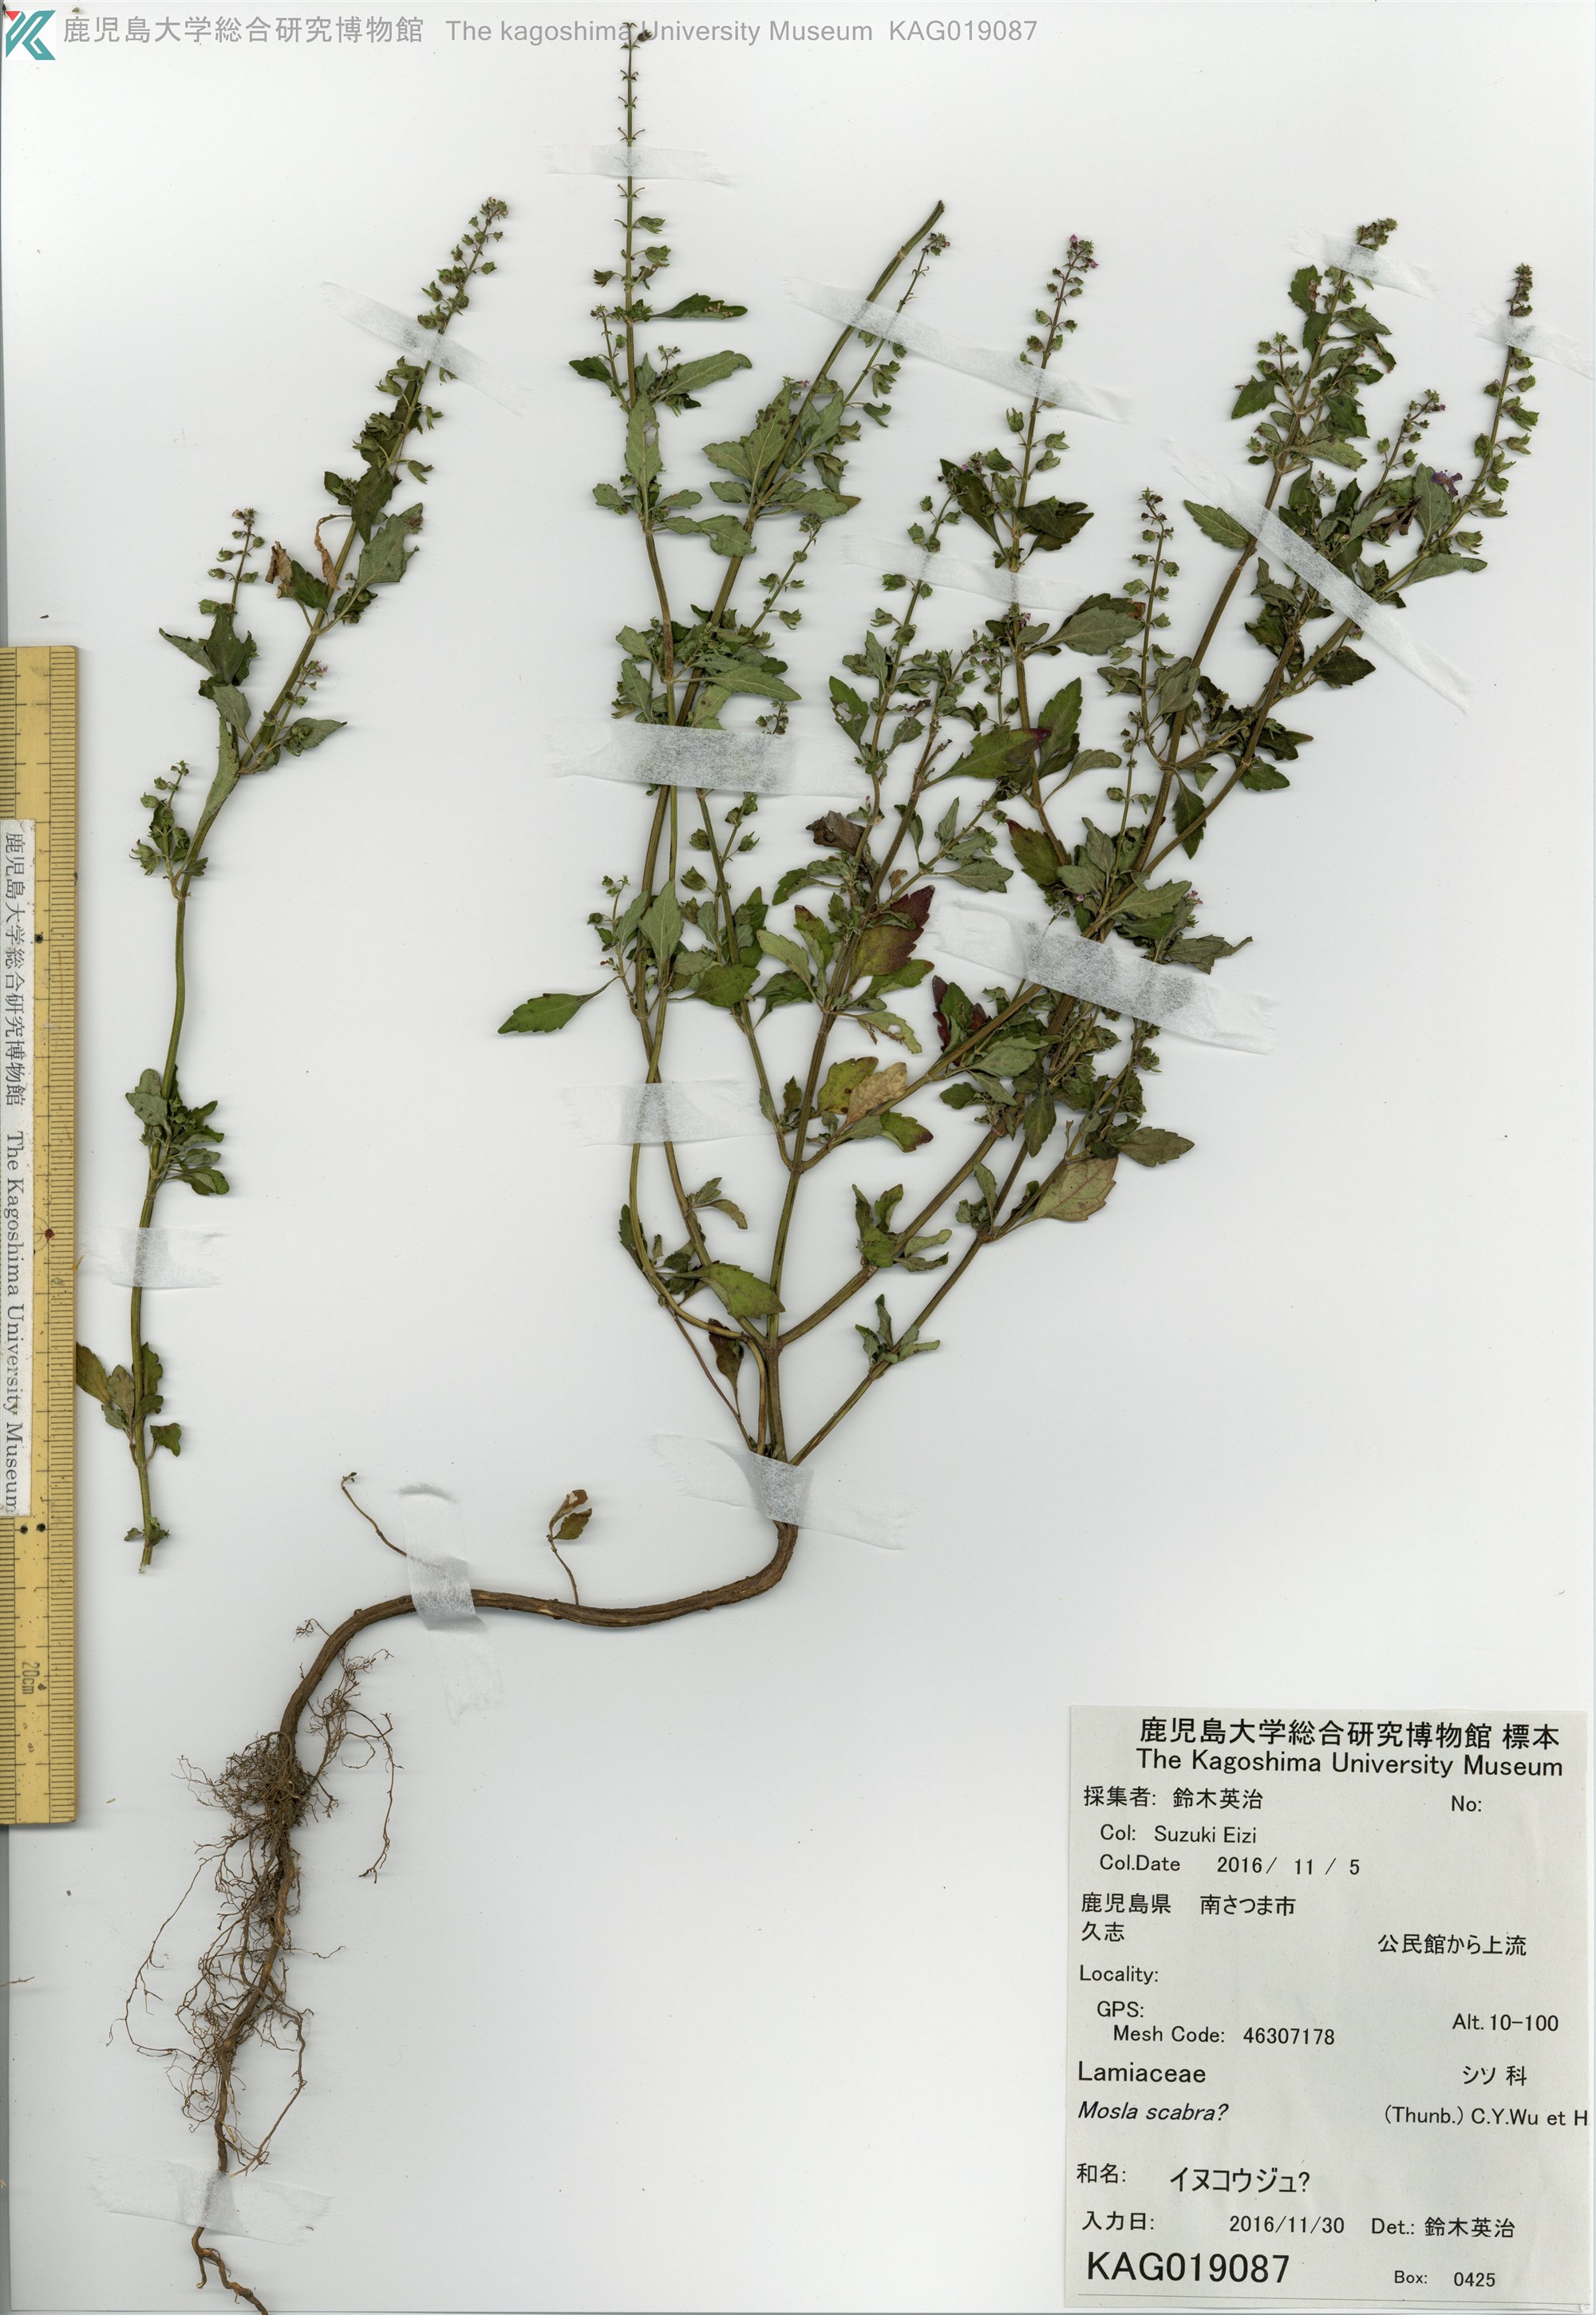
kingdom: Plantae
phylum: Tracheophyta
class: Magnoliopsida
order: Lamiales
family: Lamiaceae
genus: Mosla
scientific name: Mosla
